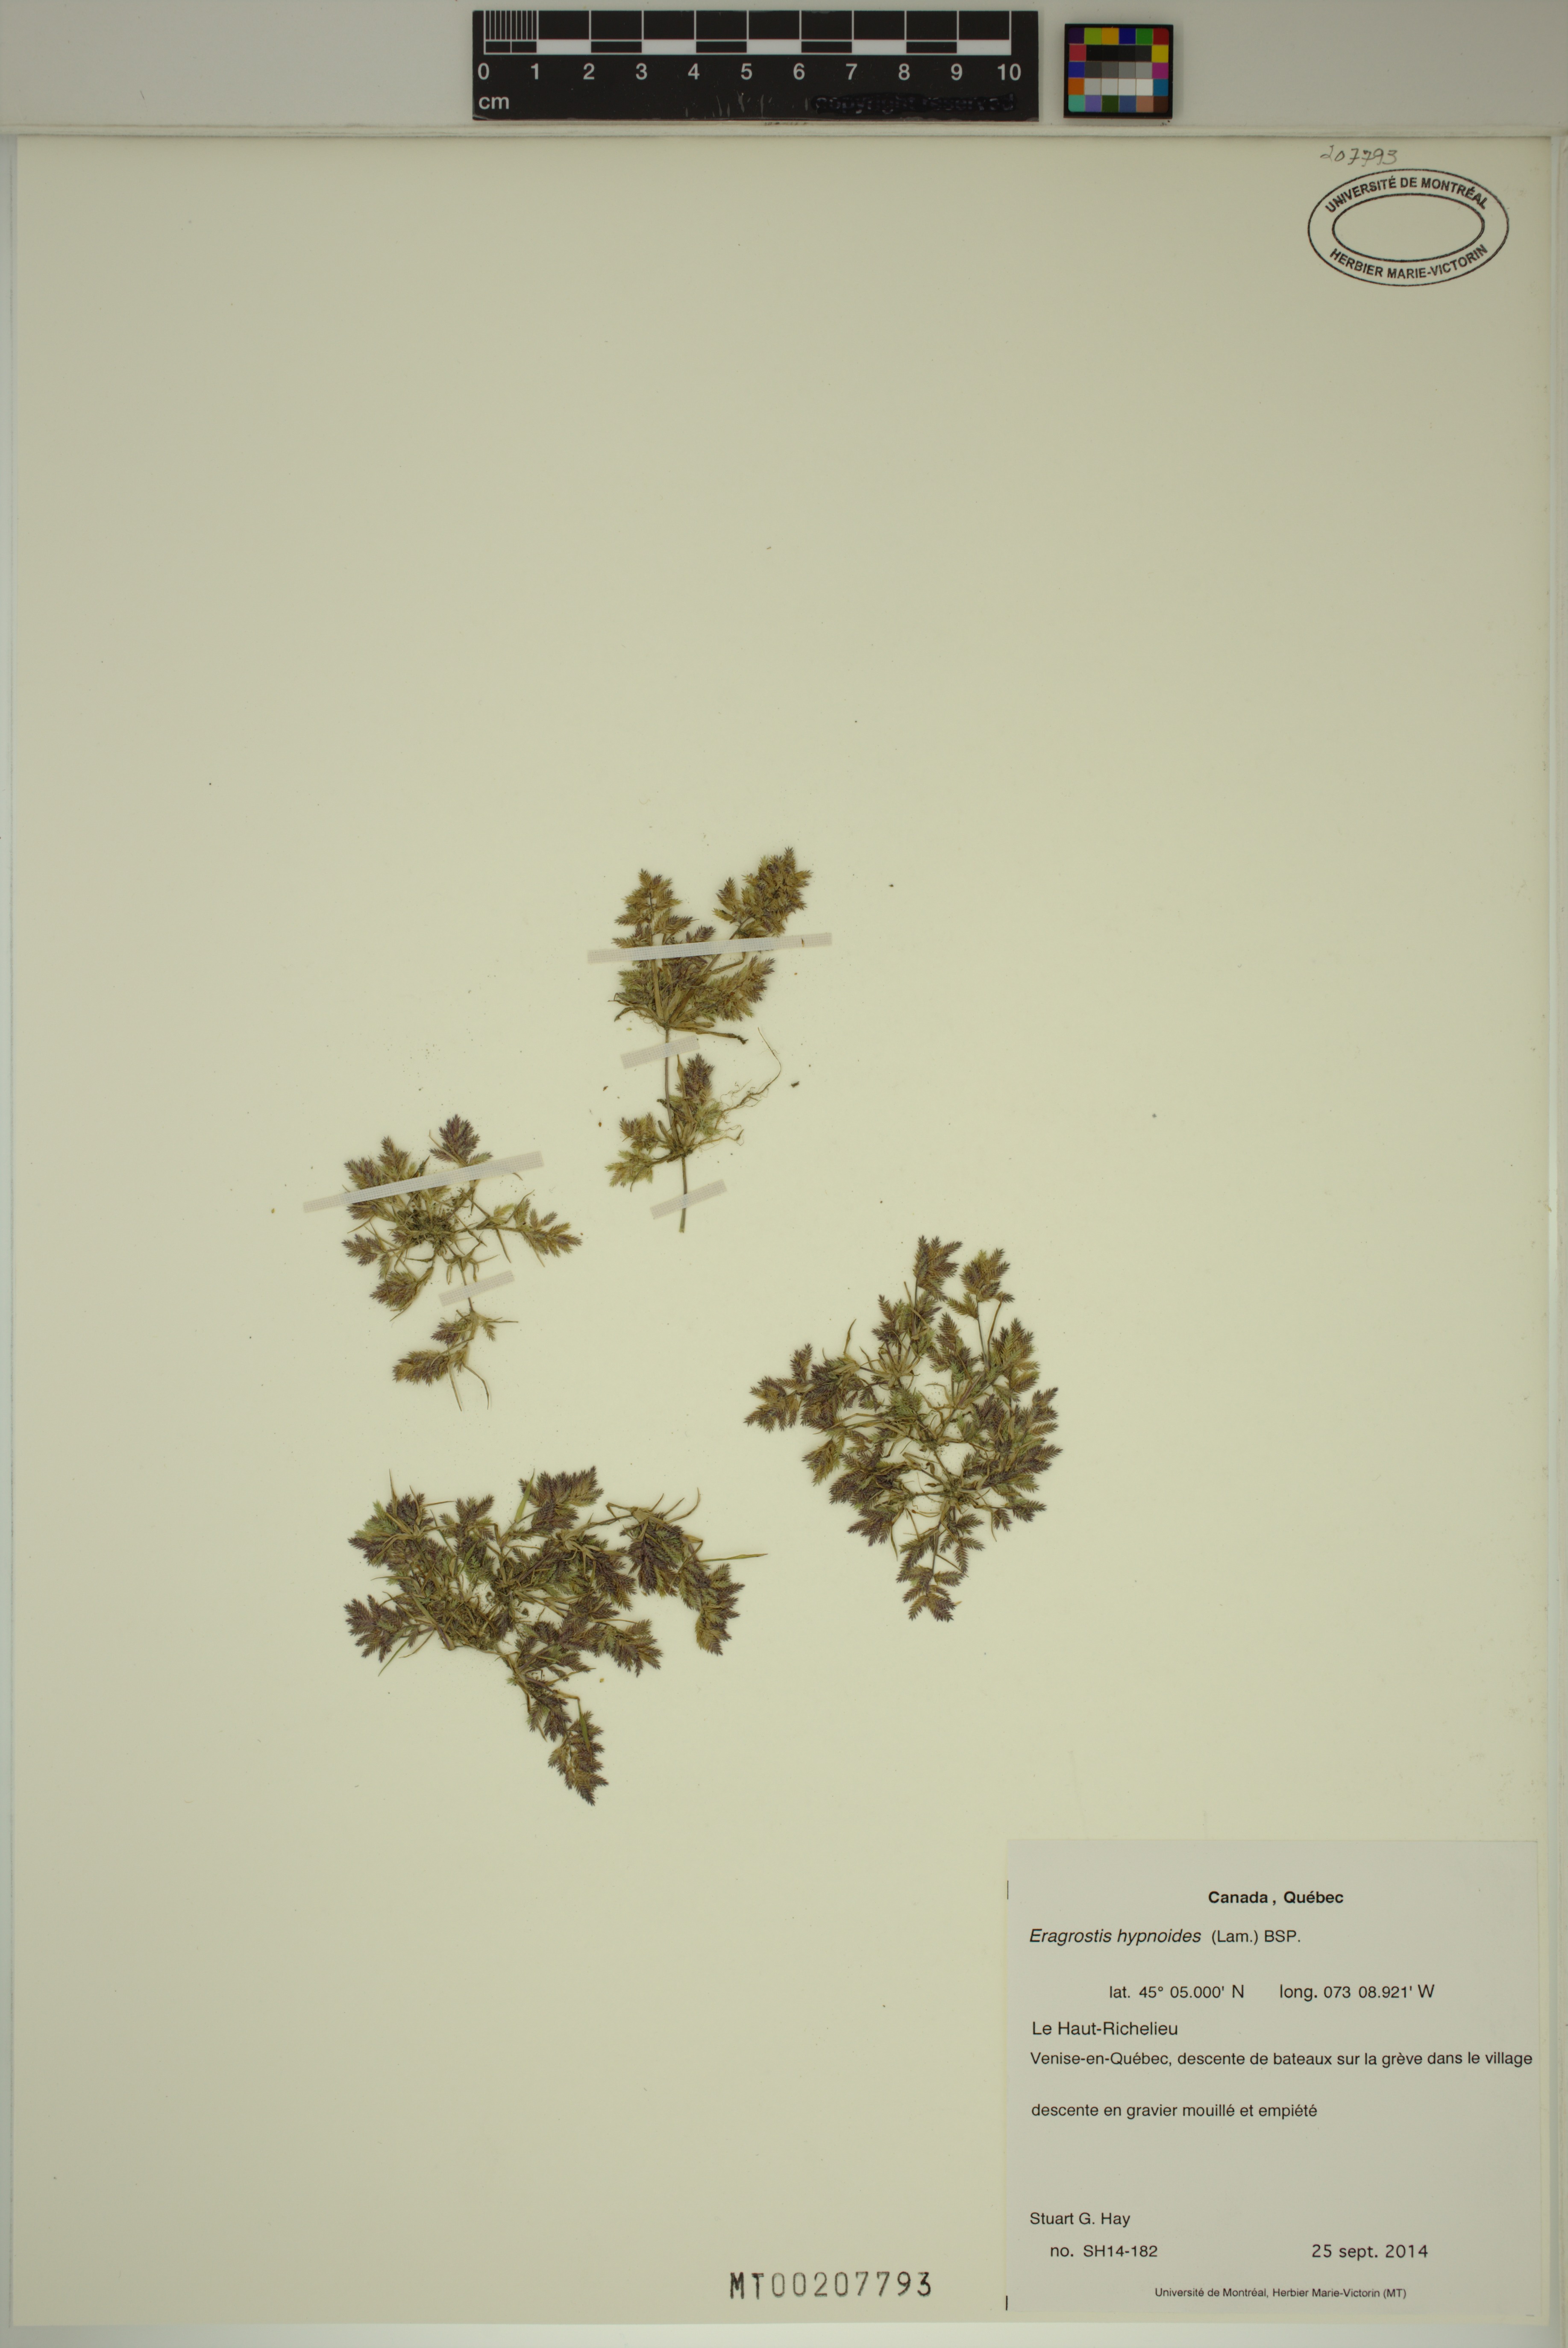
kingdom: Plantae
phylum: Tracheophyta
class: Liliopsida
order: Poales
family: Poaceae
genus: Eragrostis
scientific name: Eragrostis hypnoides
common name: Creeping love grass
